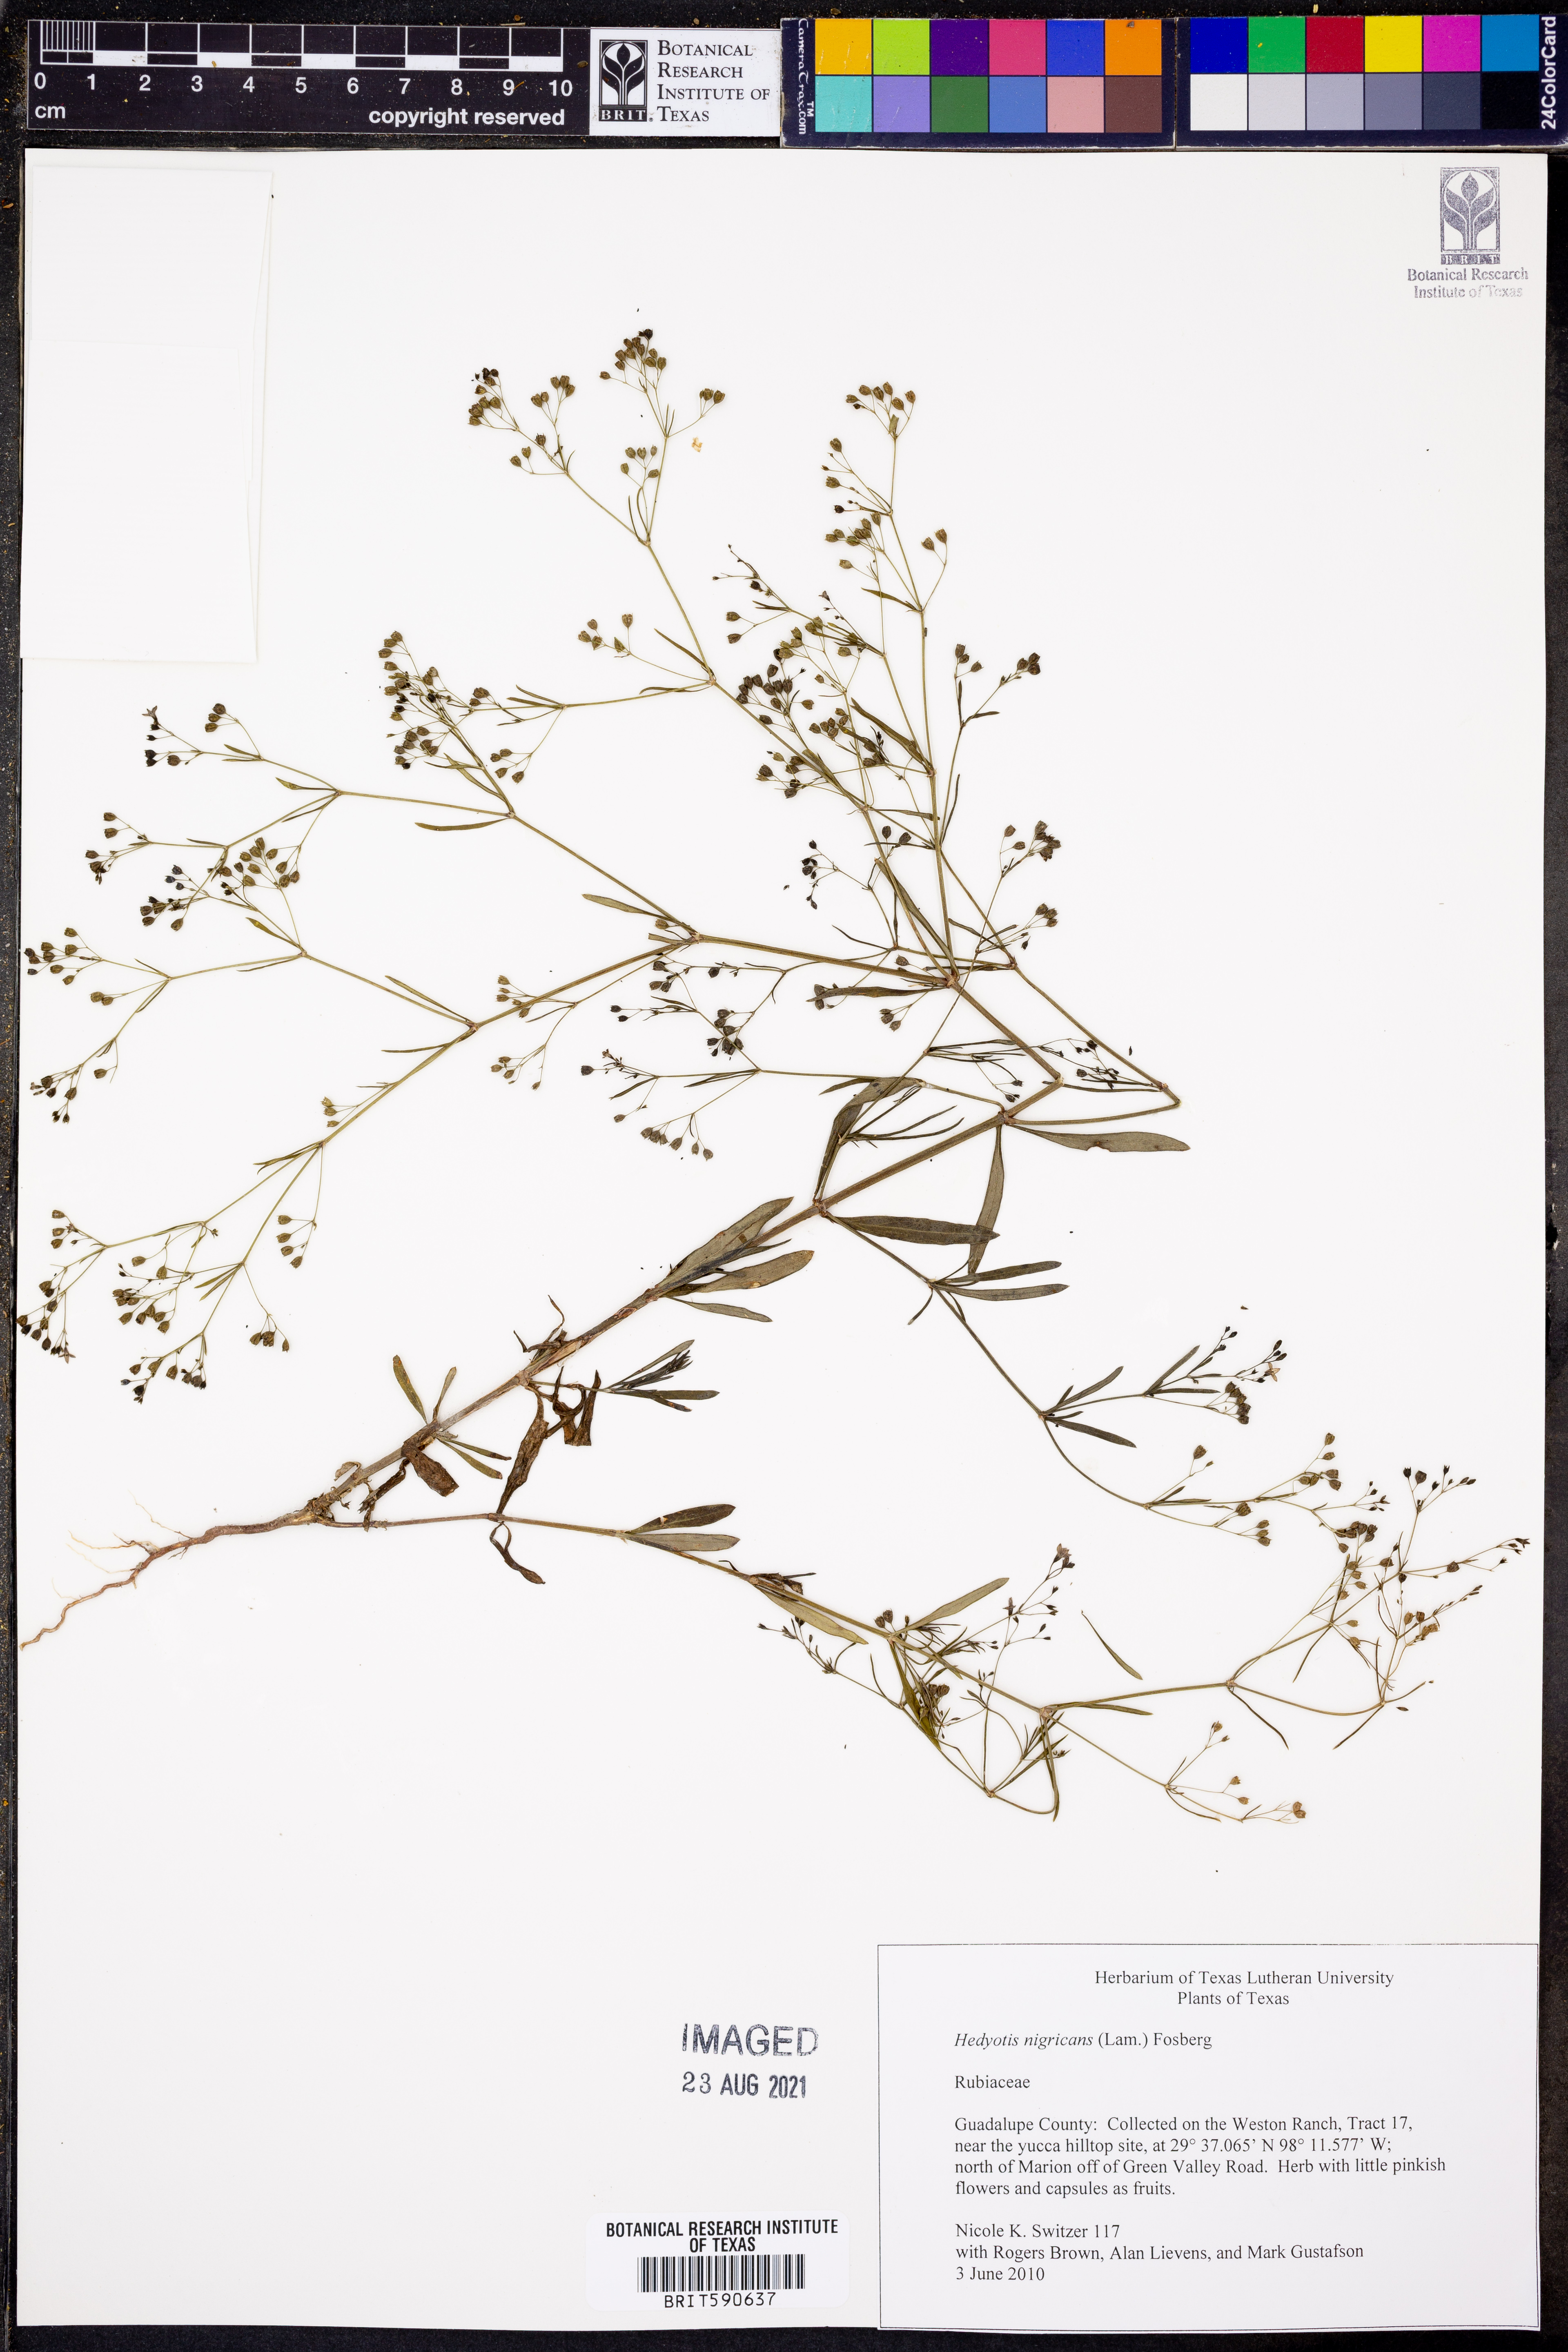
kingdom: Plantae
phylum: Tracheophyta
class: Magnoliopsida
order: Gentianales
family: Rubiaceae
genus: Stenaria
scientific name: Stenaria nigricans
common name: Diamondflowers
